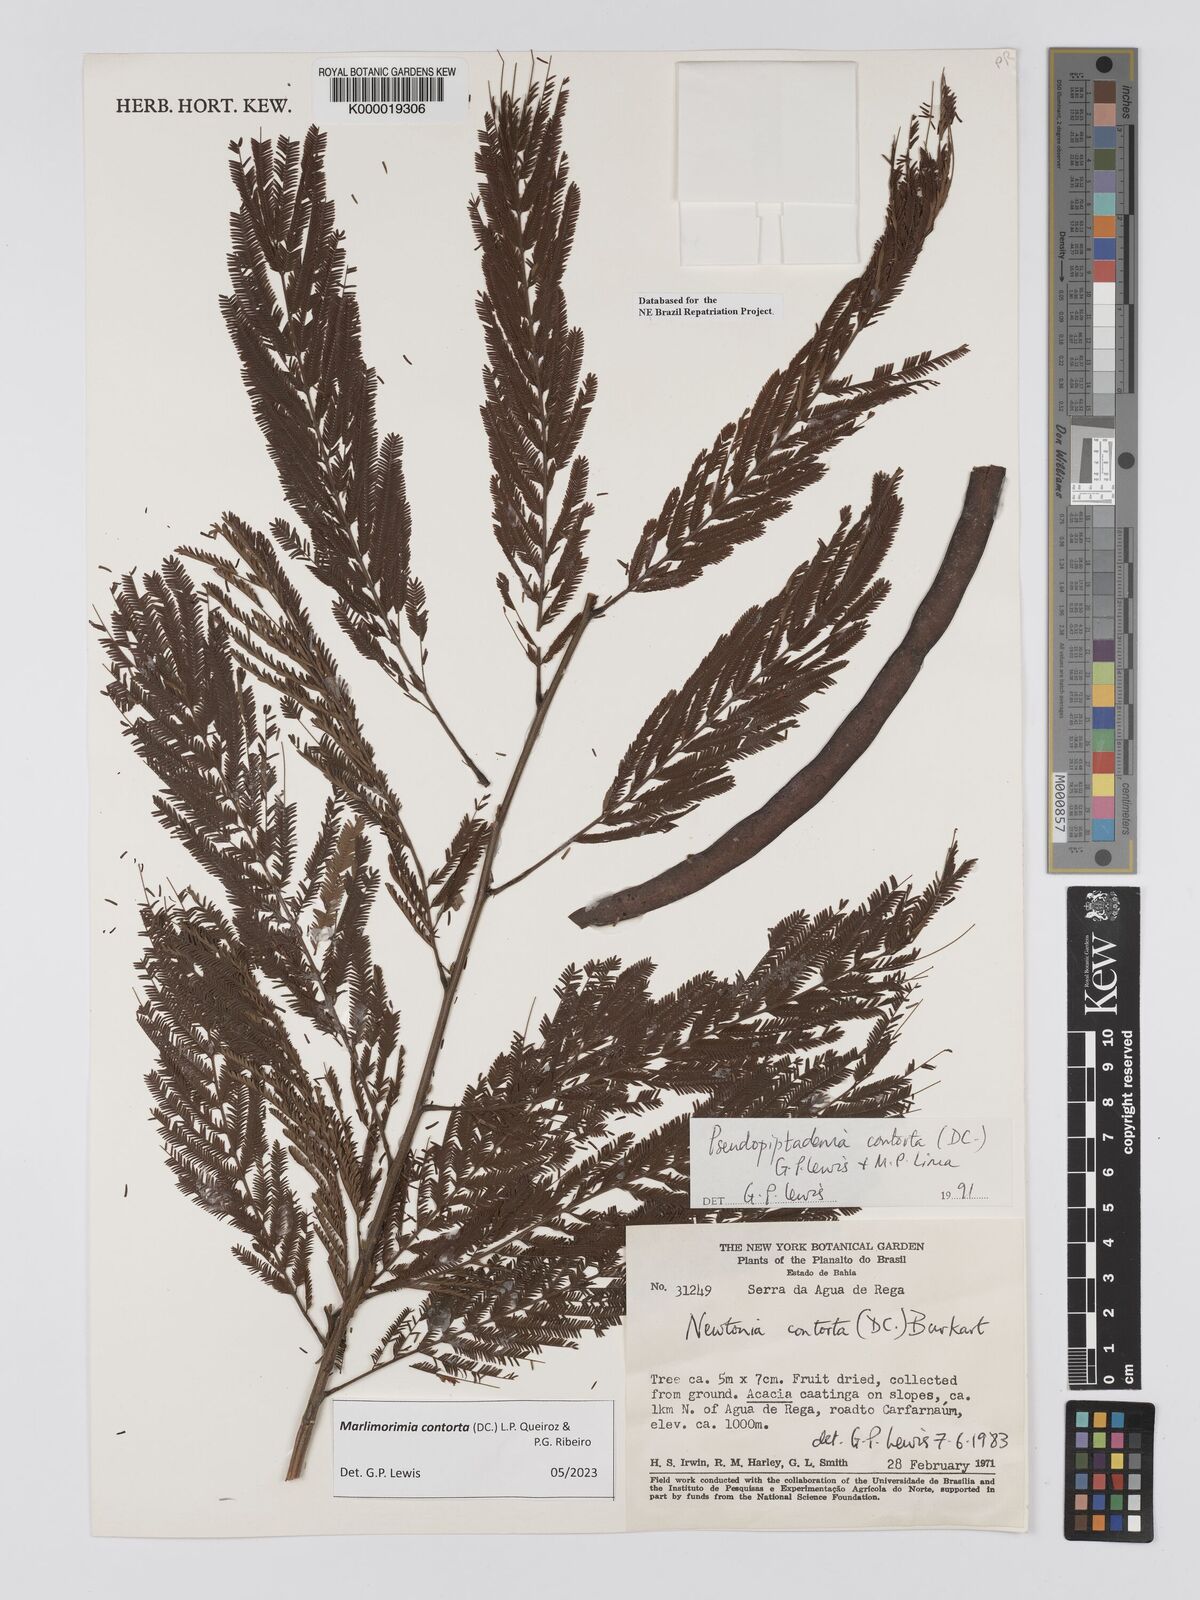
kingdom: Plantae
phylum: Tracheophyta
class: Magnoliopsida
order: Fabales
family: Fabaceae
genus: Pseudopiptadenia
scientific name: Pseudopiptadenia contorta
